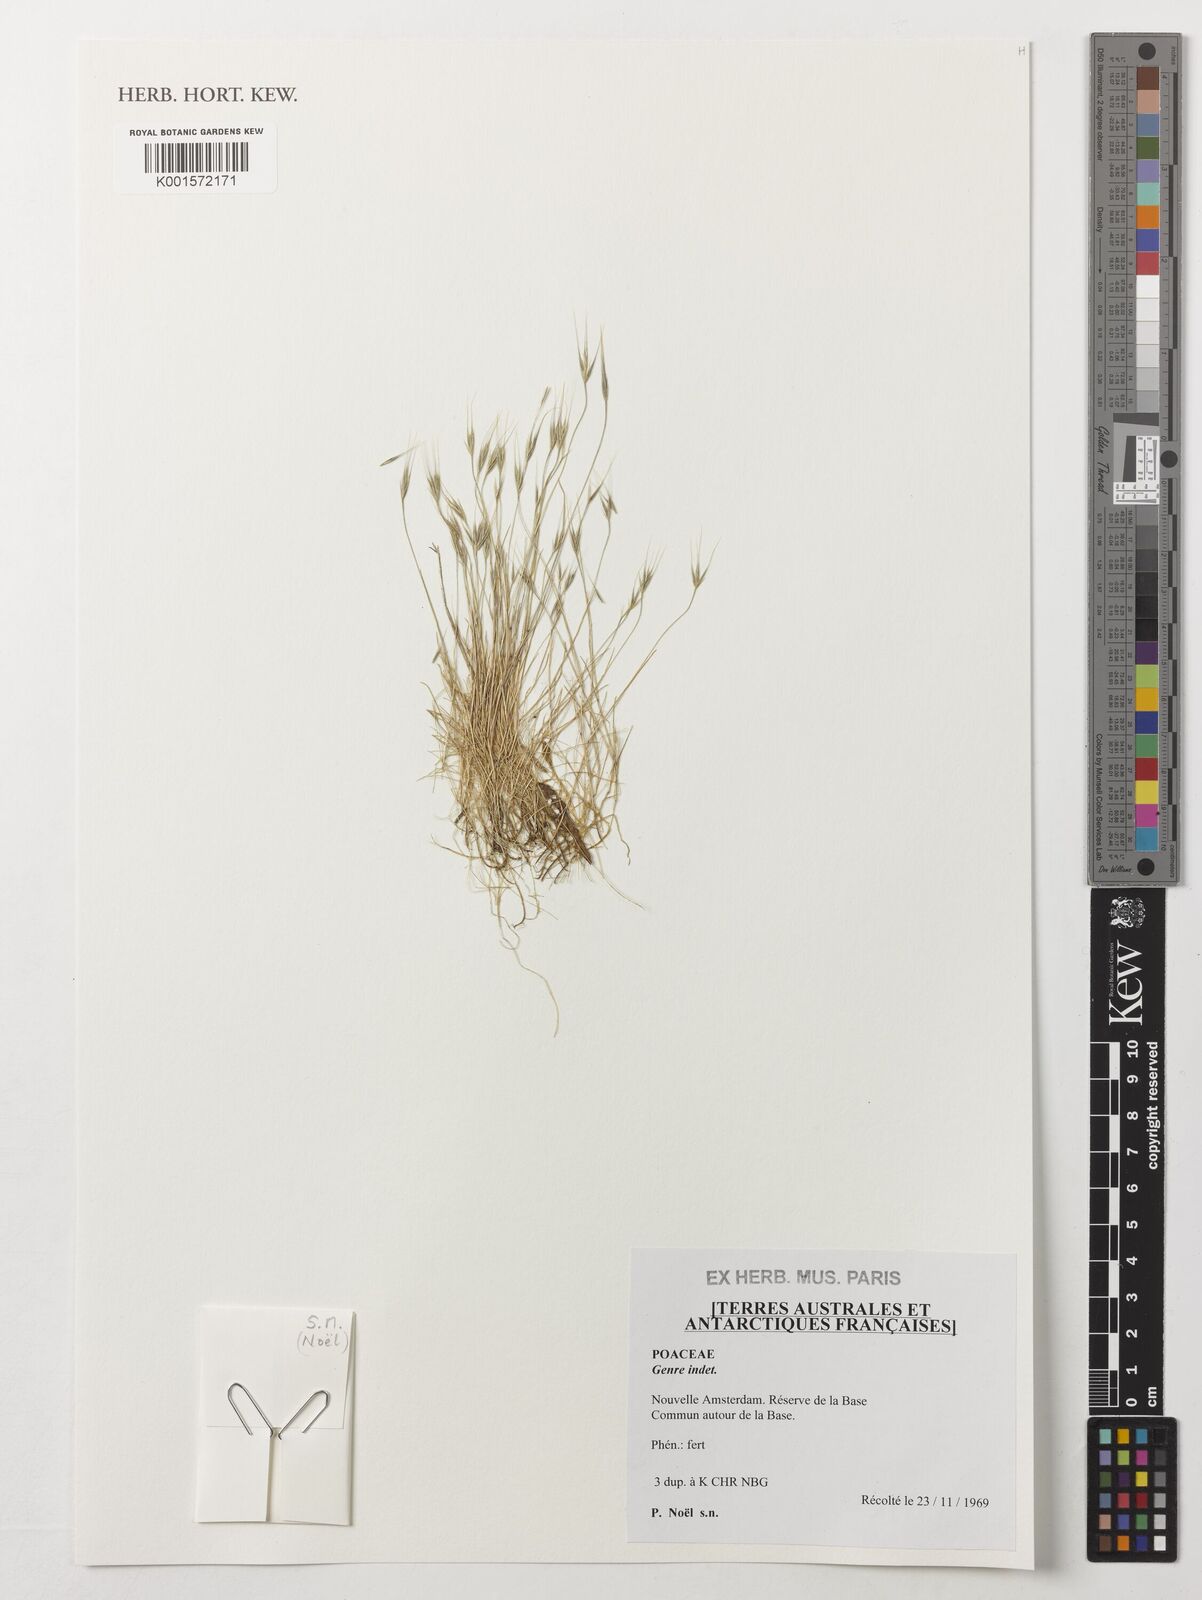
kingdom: Plantae
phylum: Tracheophyta
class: Liliopsida
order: Poales
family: Poaceae
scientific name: Poaceae
